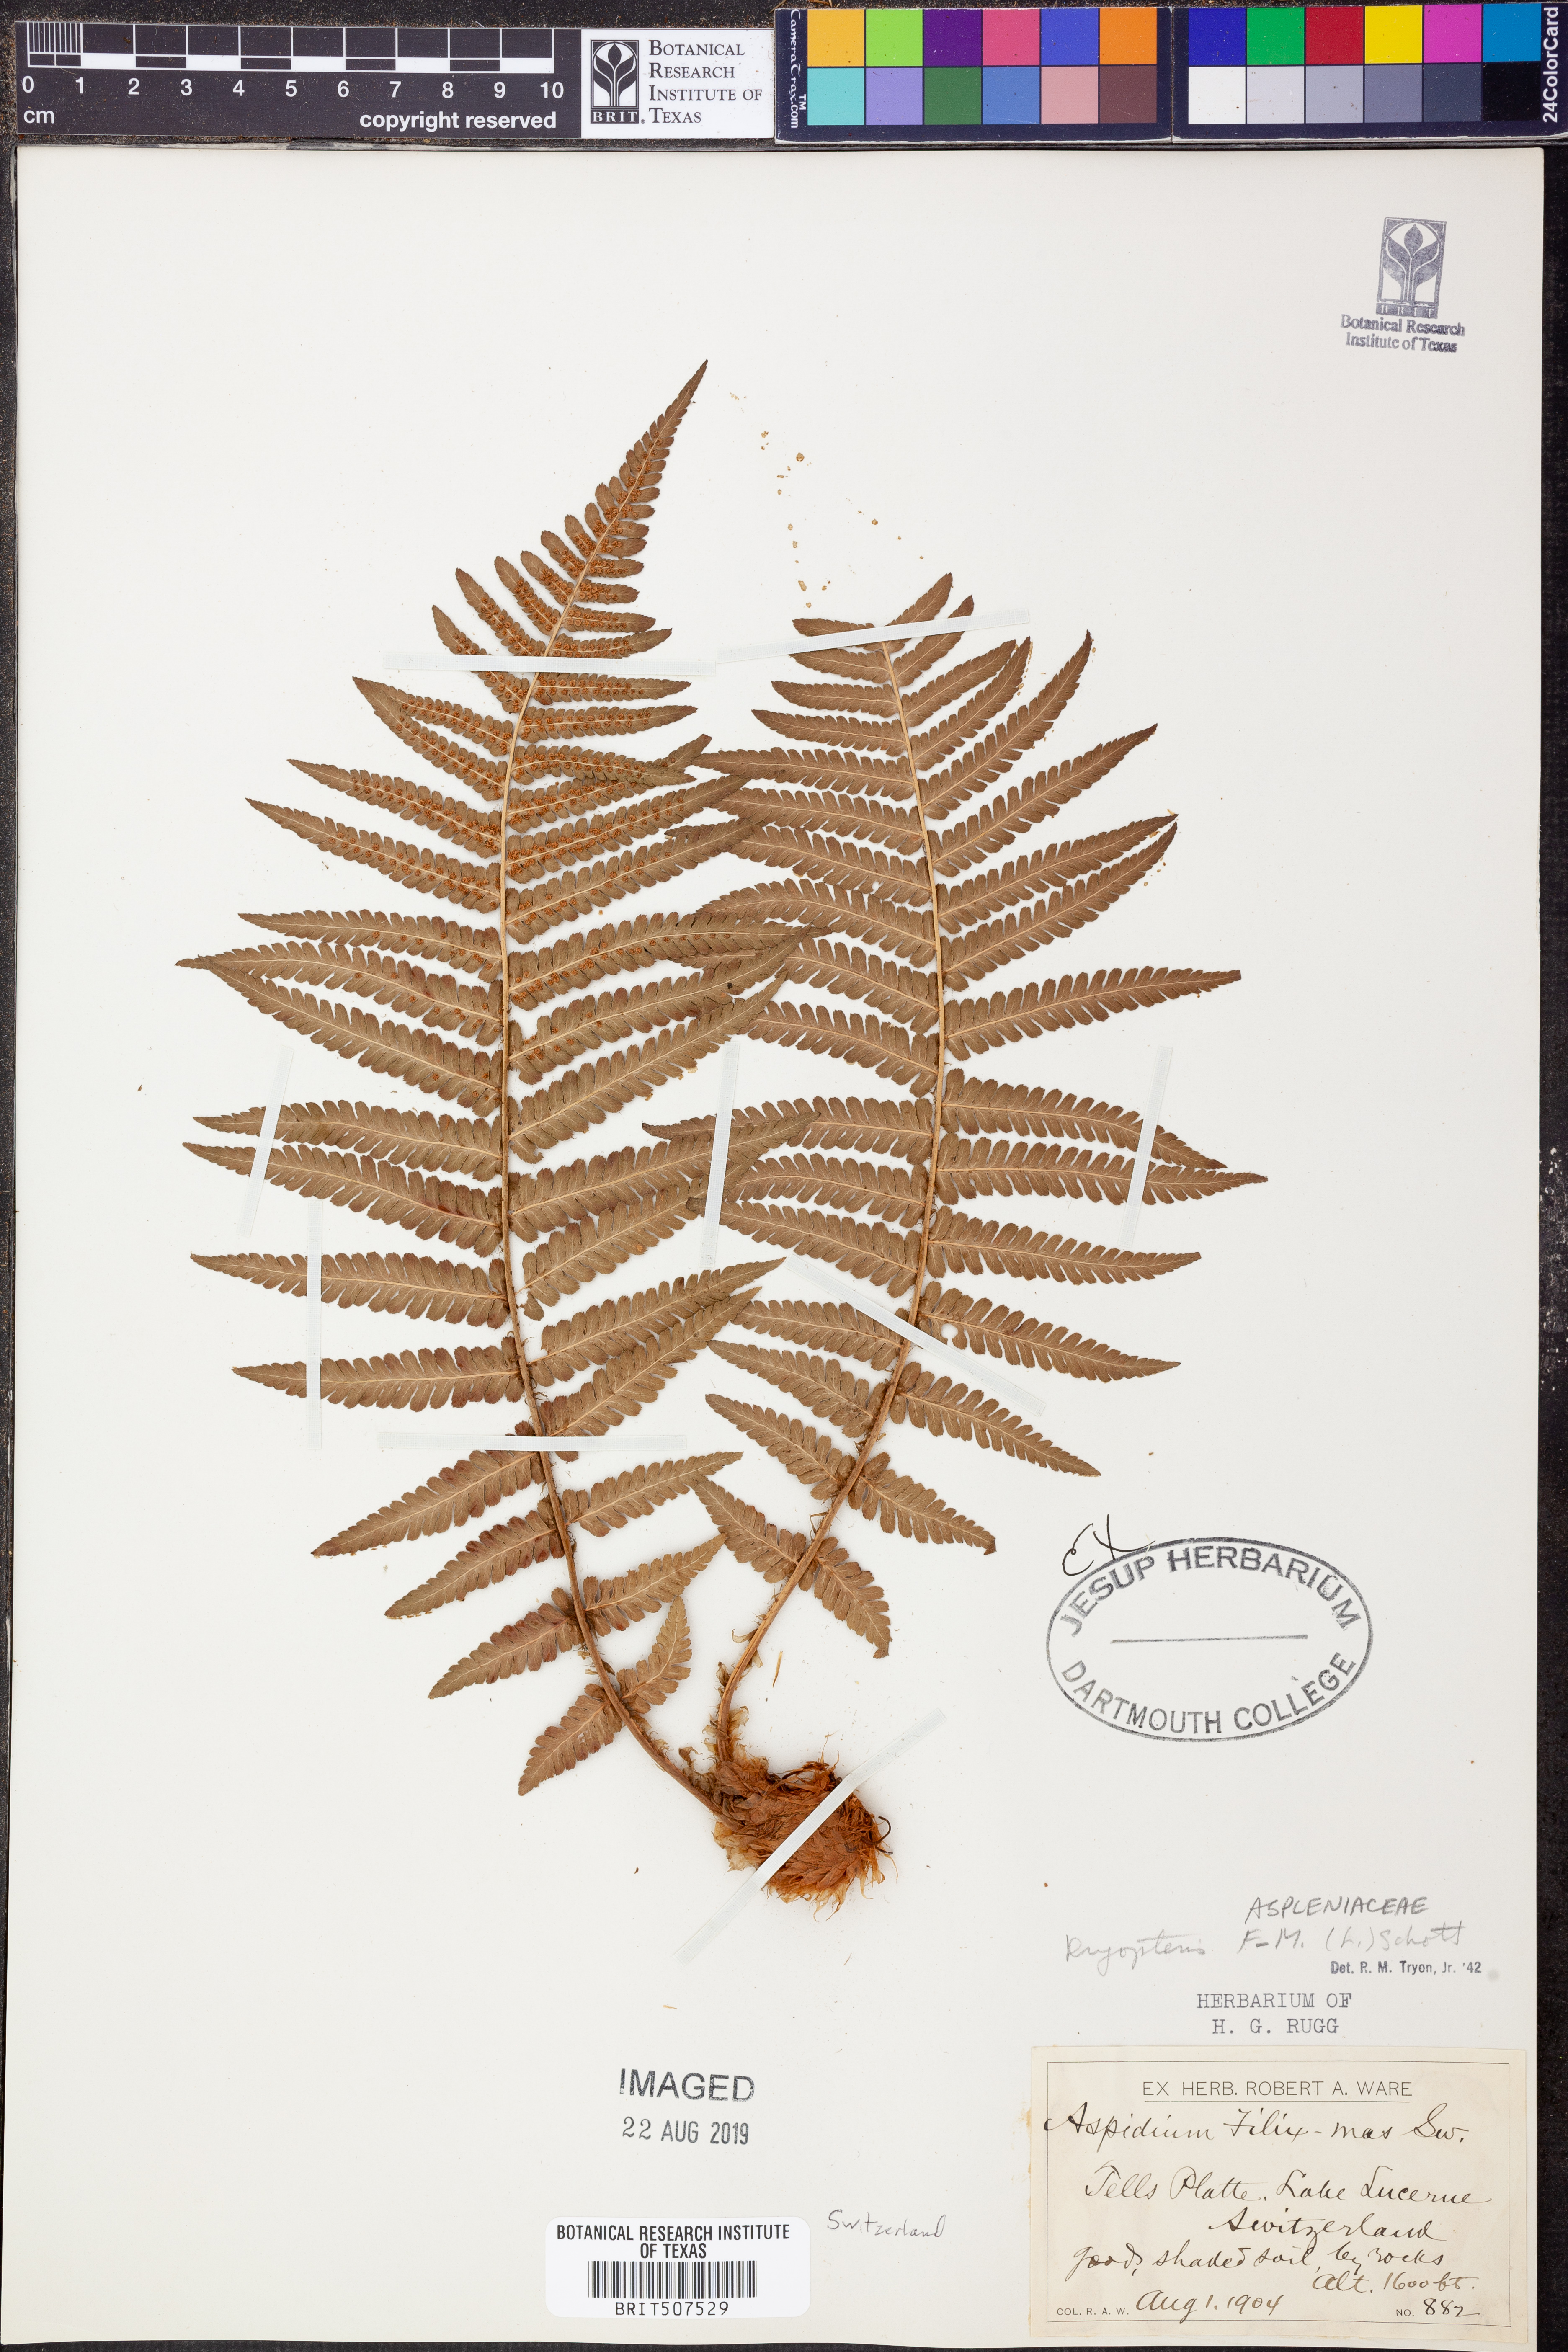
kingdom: Plantae
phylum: Tracheophyta
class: Polypodiopsida
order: Polypodiales
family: Dryopteridaceae
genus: Dryopteris
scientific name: Dryopteris filix-mas
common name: Male fern
